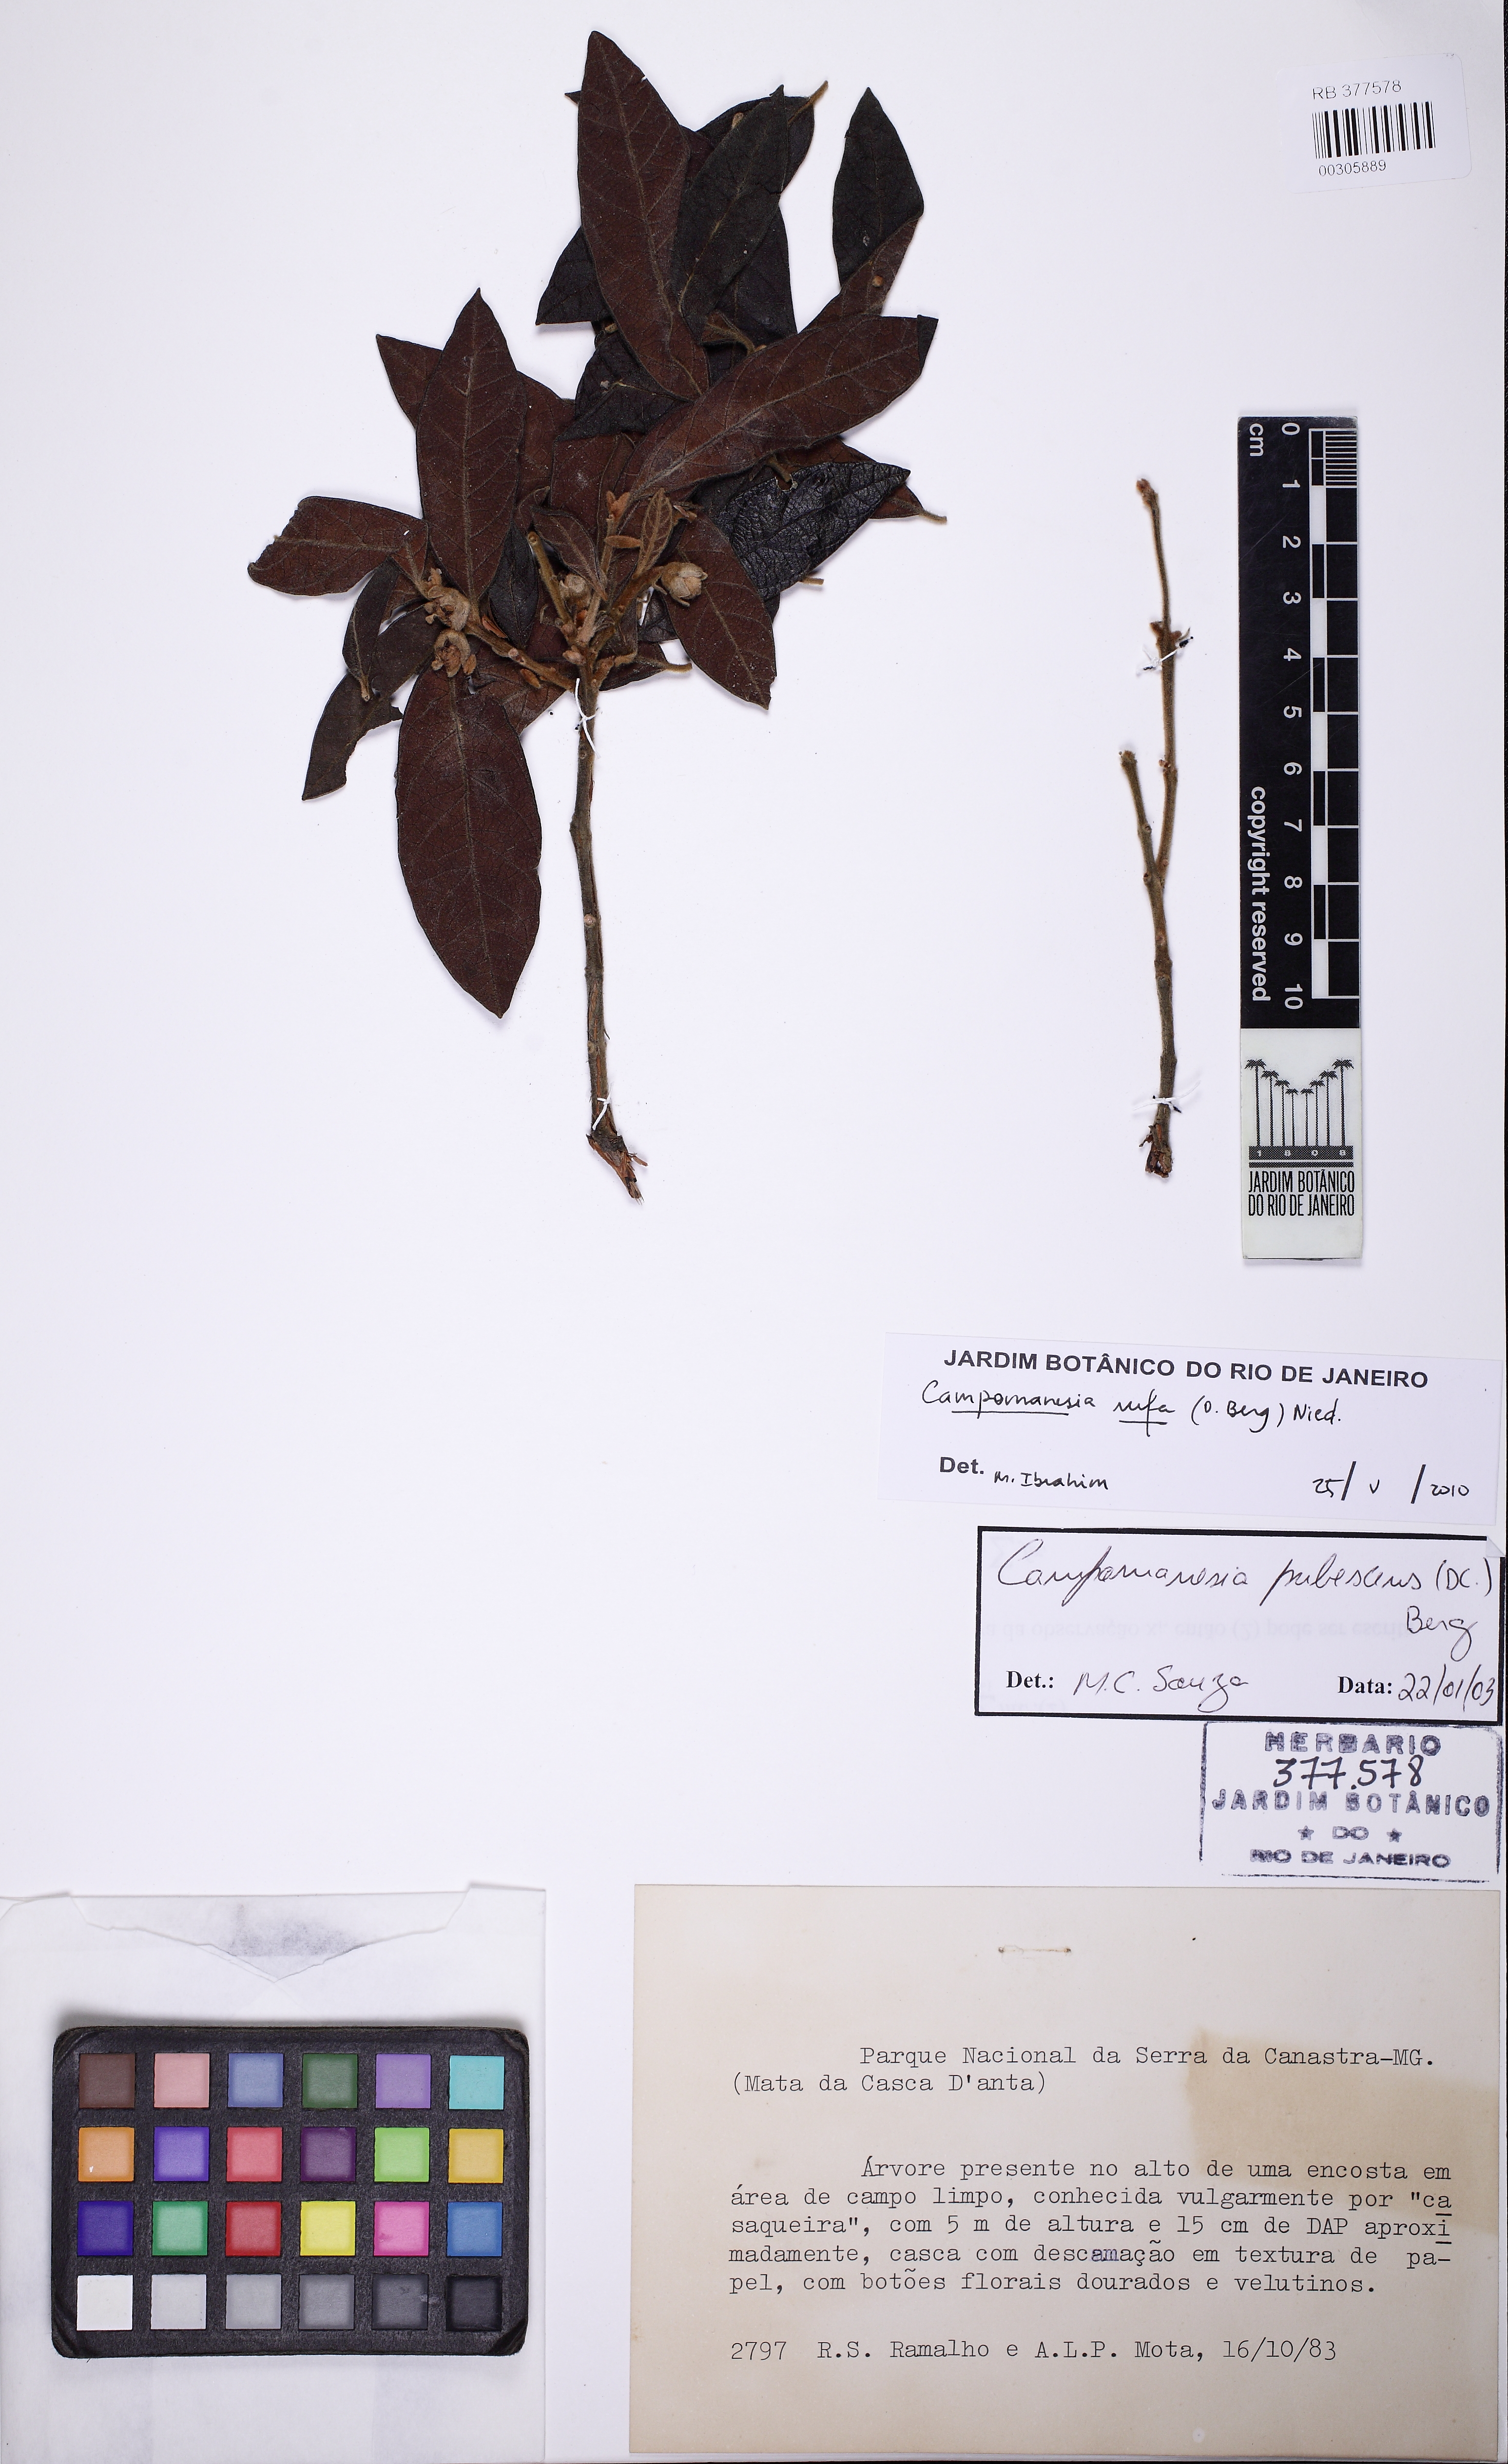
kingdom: Plantae
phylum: Tracheophyta
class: Magnoliopsida
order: Myrtales
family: Myrtaceae
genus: Campomanesia
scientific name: Campomanesia rufa
